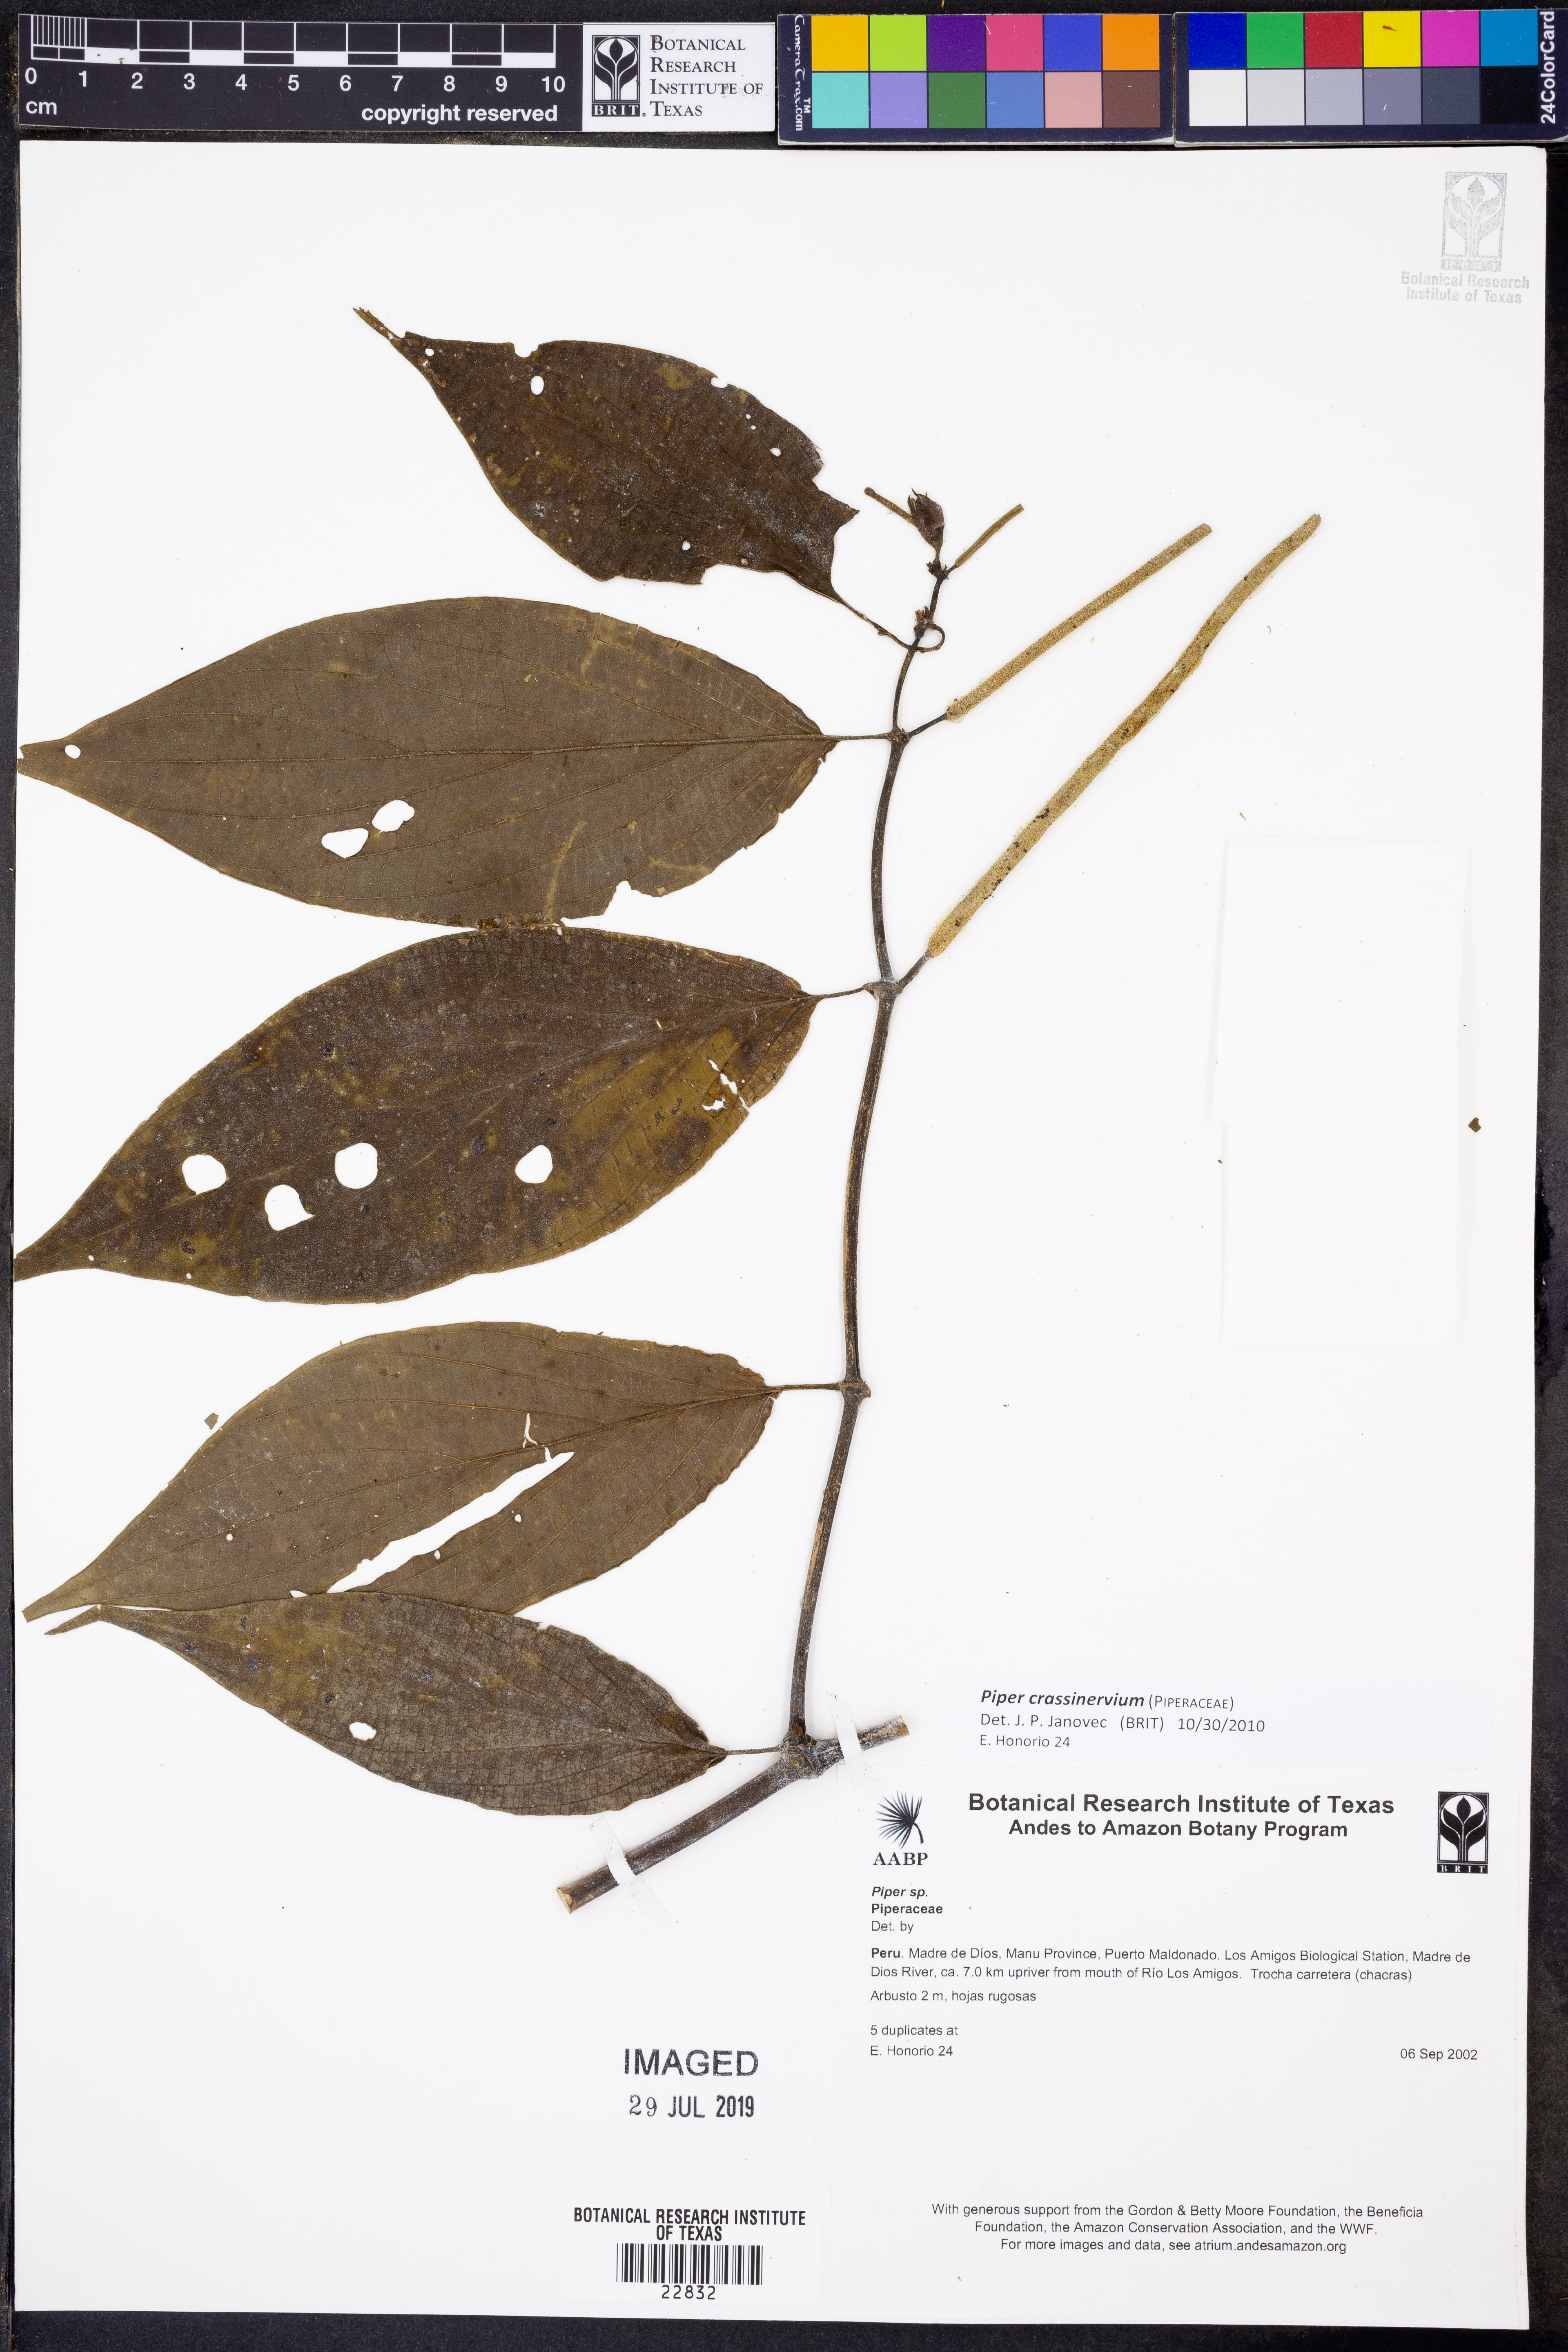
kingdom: Plantae
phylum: Tracheophyta
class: Magnoliopsida
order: Piperales
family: Piperaceae
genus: Piper
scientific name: Piper crassinervium
